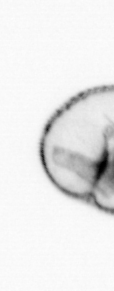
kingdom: Chromista
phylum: Myzozoa
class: Dinophyceae
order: Noctilucales
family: Noctilucaceae
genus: Noctiluca
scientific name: Noctiluca scintillans
